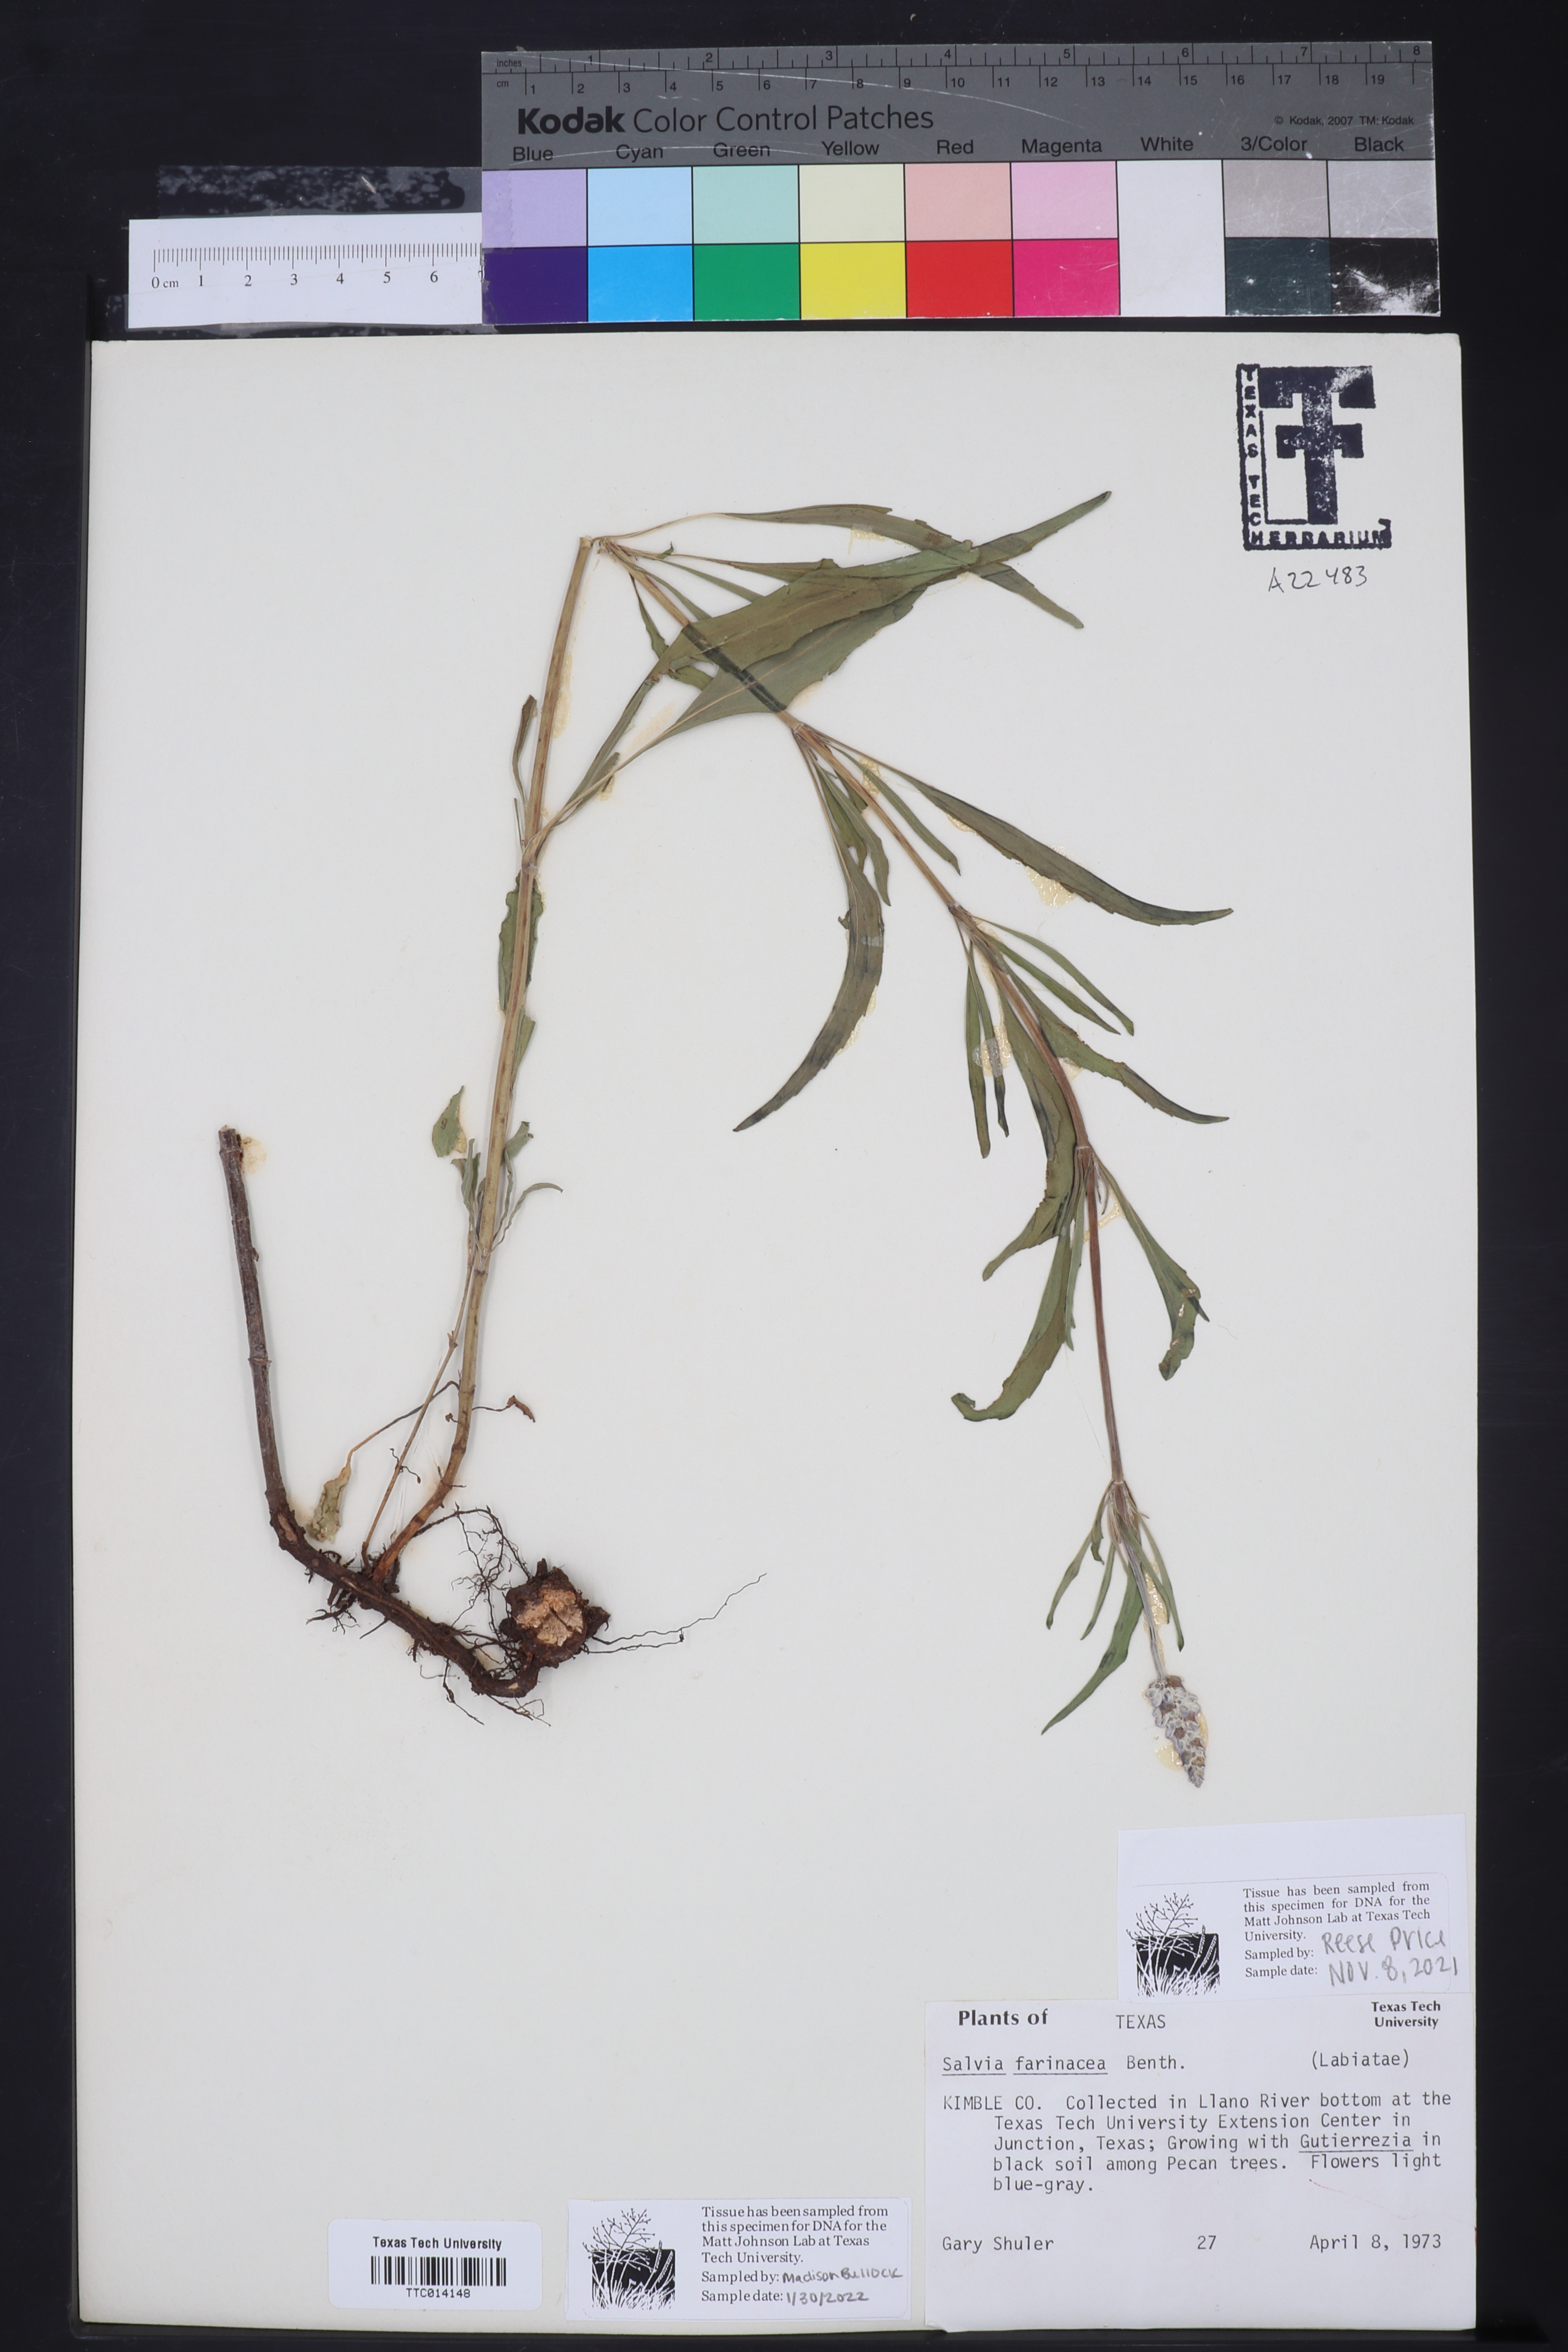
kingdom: Plantae
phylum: Tracheophyta
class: Magnoliopsida
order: Lamiales
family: Lamiaceae
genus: Salvia
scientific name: Salvia farinacea
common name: Mealy sage
